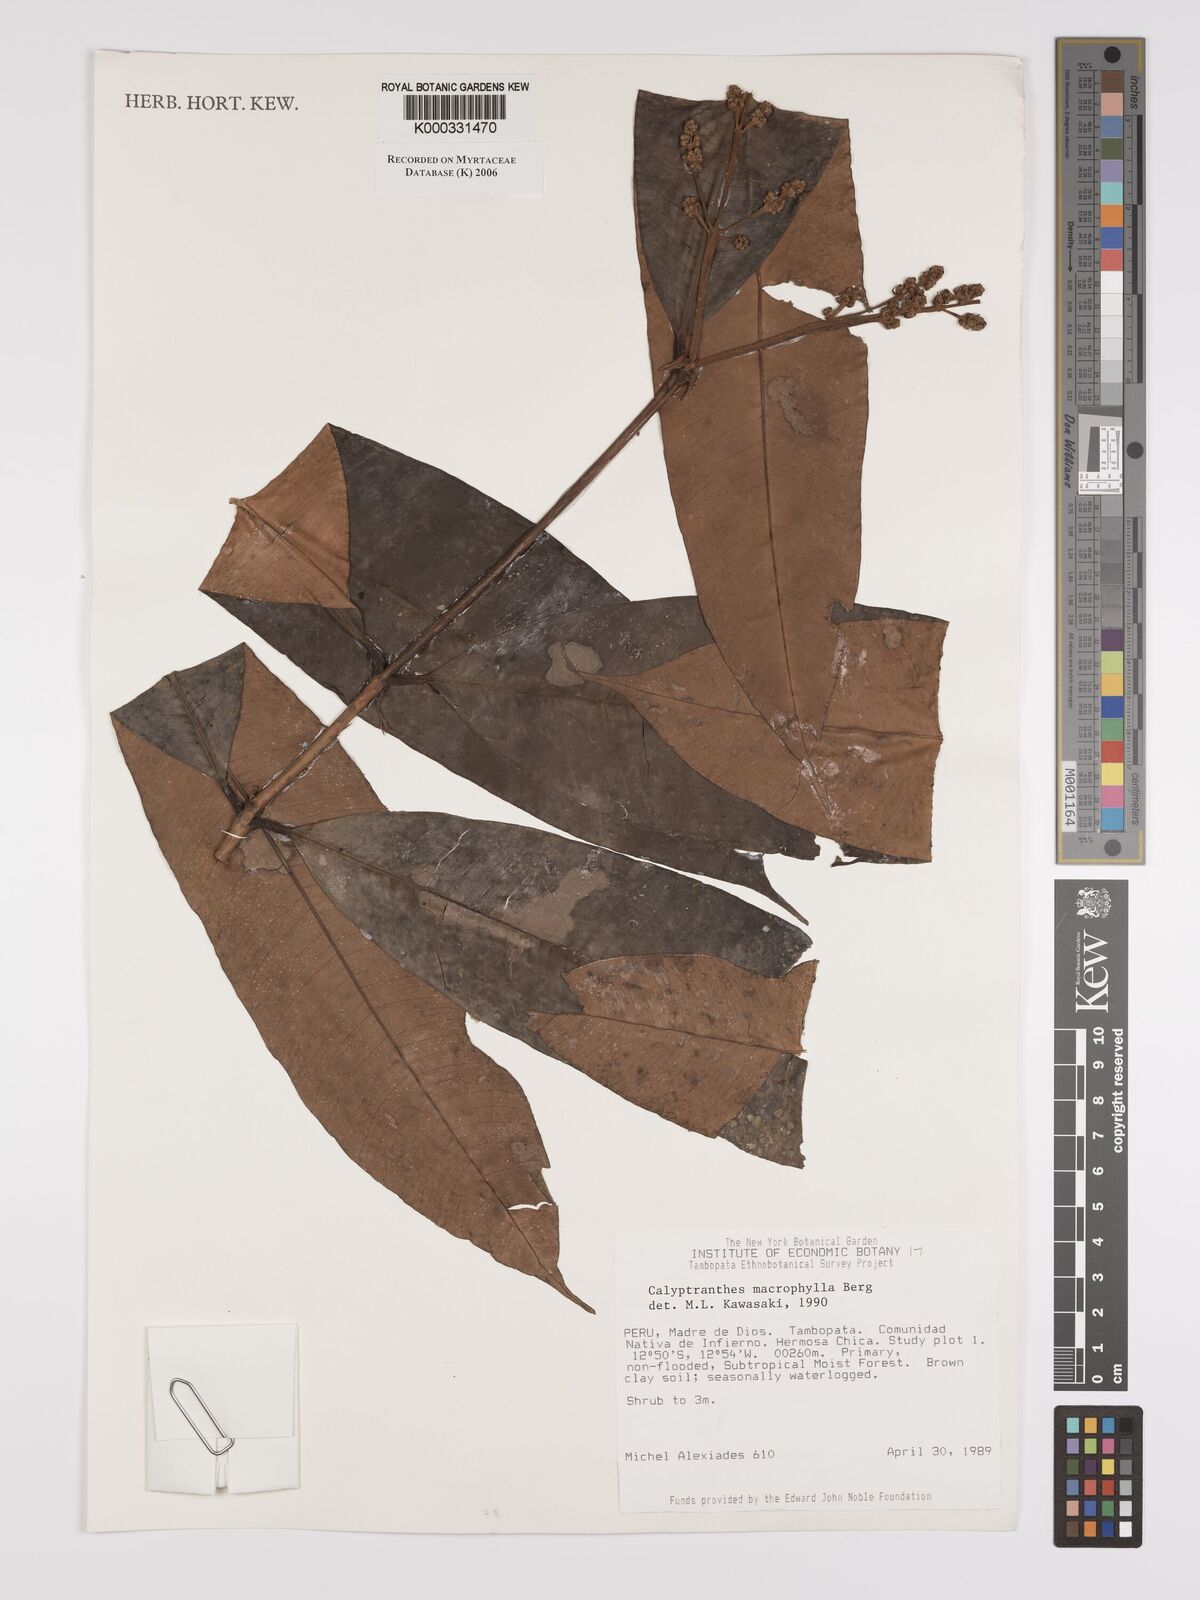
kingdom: Plantae
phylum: Tracheophyta
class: Magnoliopsida
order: Myrtales
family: Myrtaceae
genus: Myrcia
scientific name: Myrcia neomacrophylla
